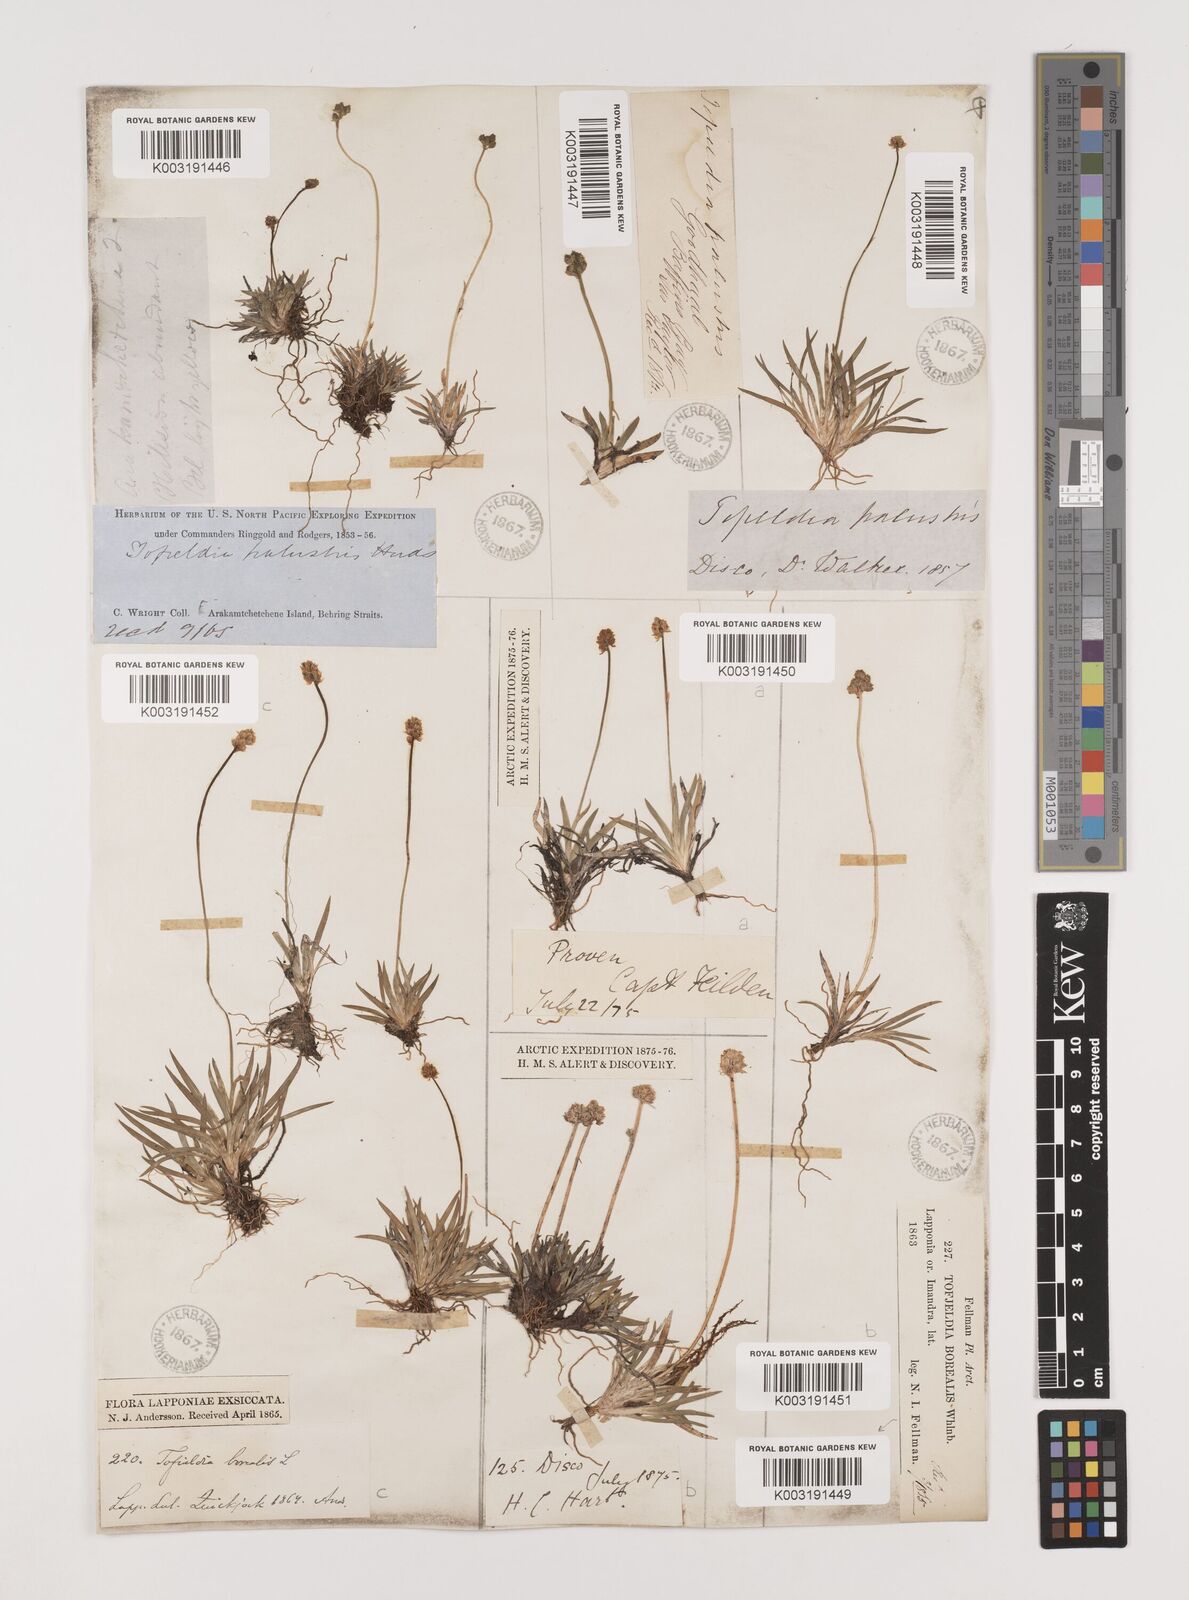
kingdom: Plantae
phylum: Tracheophyta
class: Liliopsida
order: Alismatales
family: Tofieldiaceae
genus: Tofieldia
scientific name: Tofieldia calyculata
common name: German-asphodel
